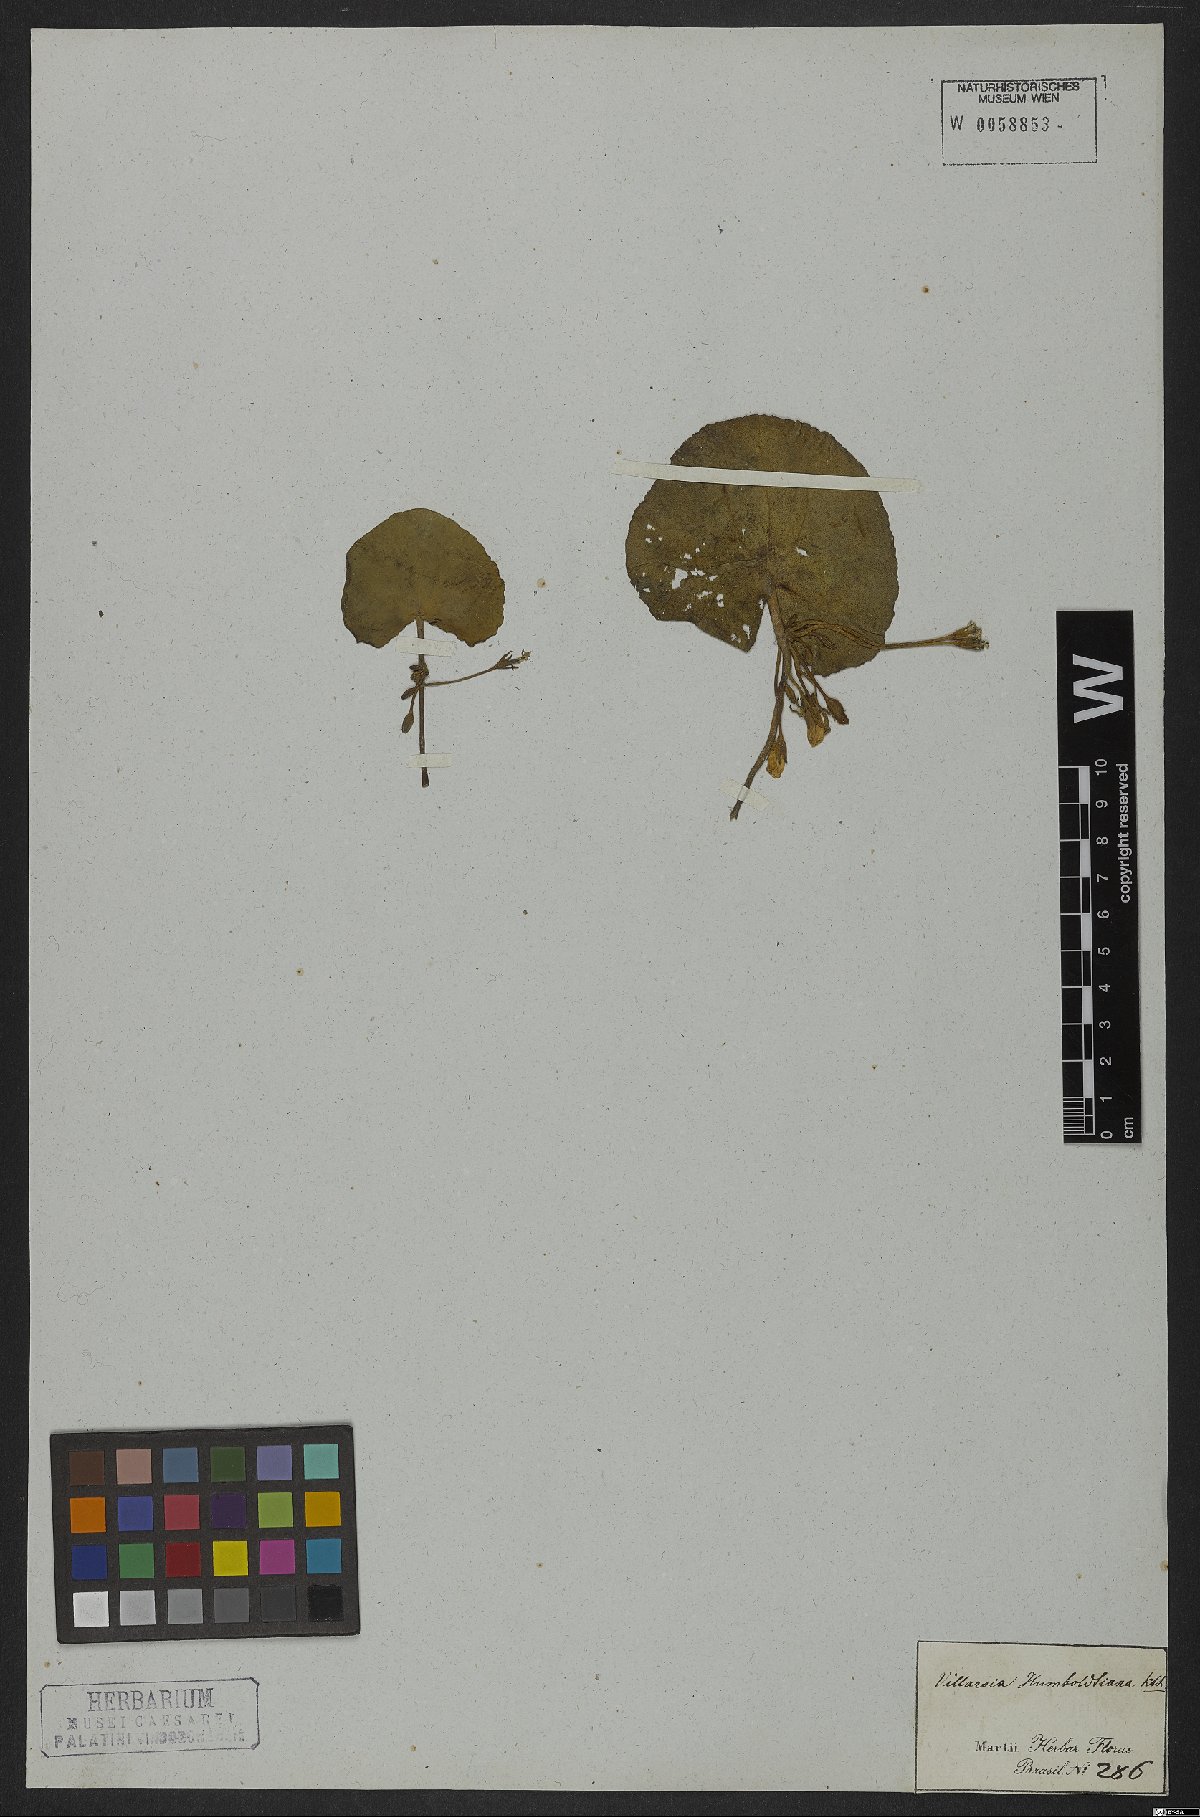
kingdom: Plantae
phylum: Tracheophyta
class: Magnoliopsida
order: Asterales
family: Menyanthaceae
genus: Nymphoides
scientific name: Nymphoides humboldtiana
